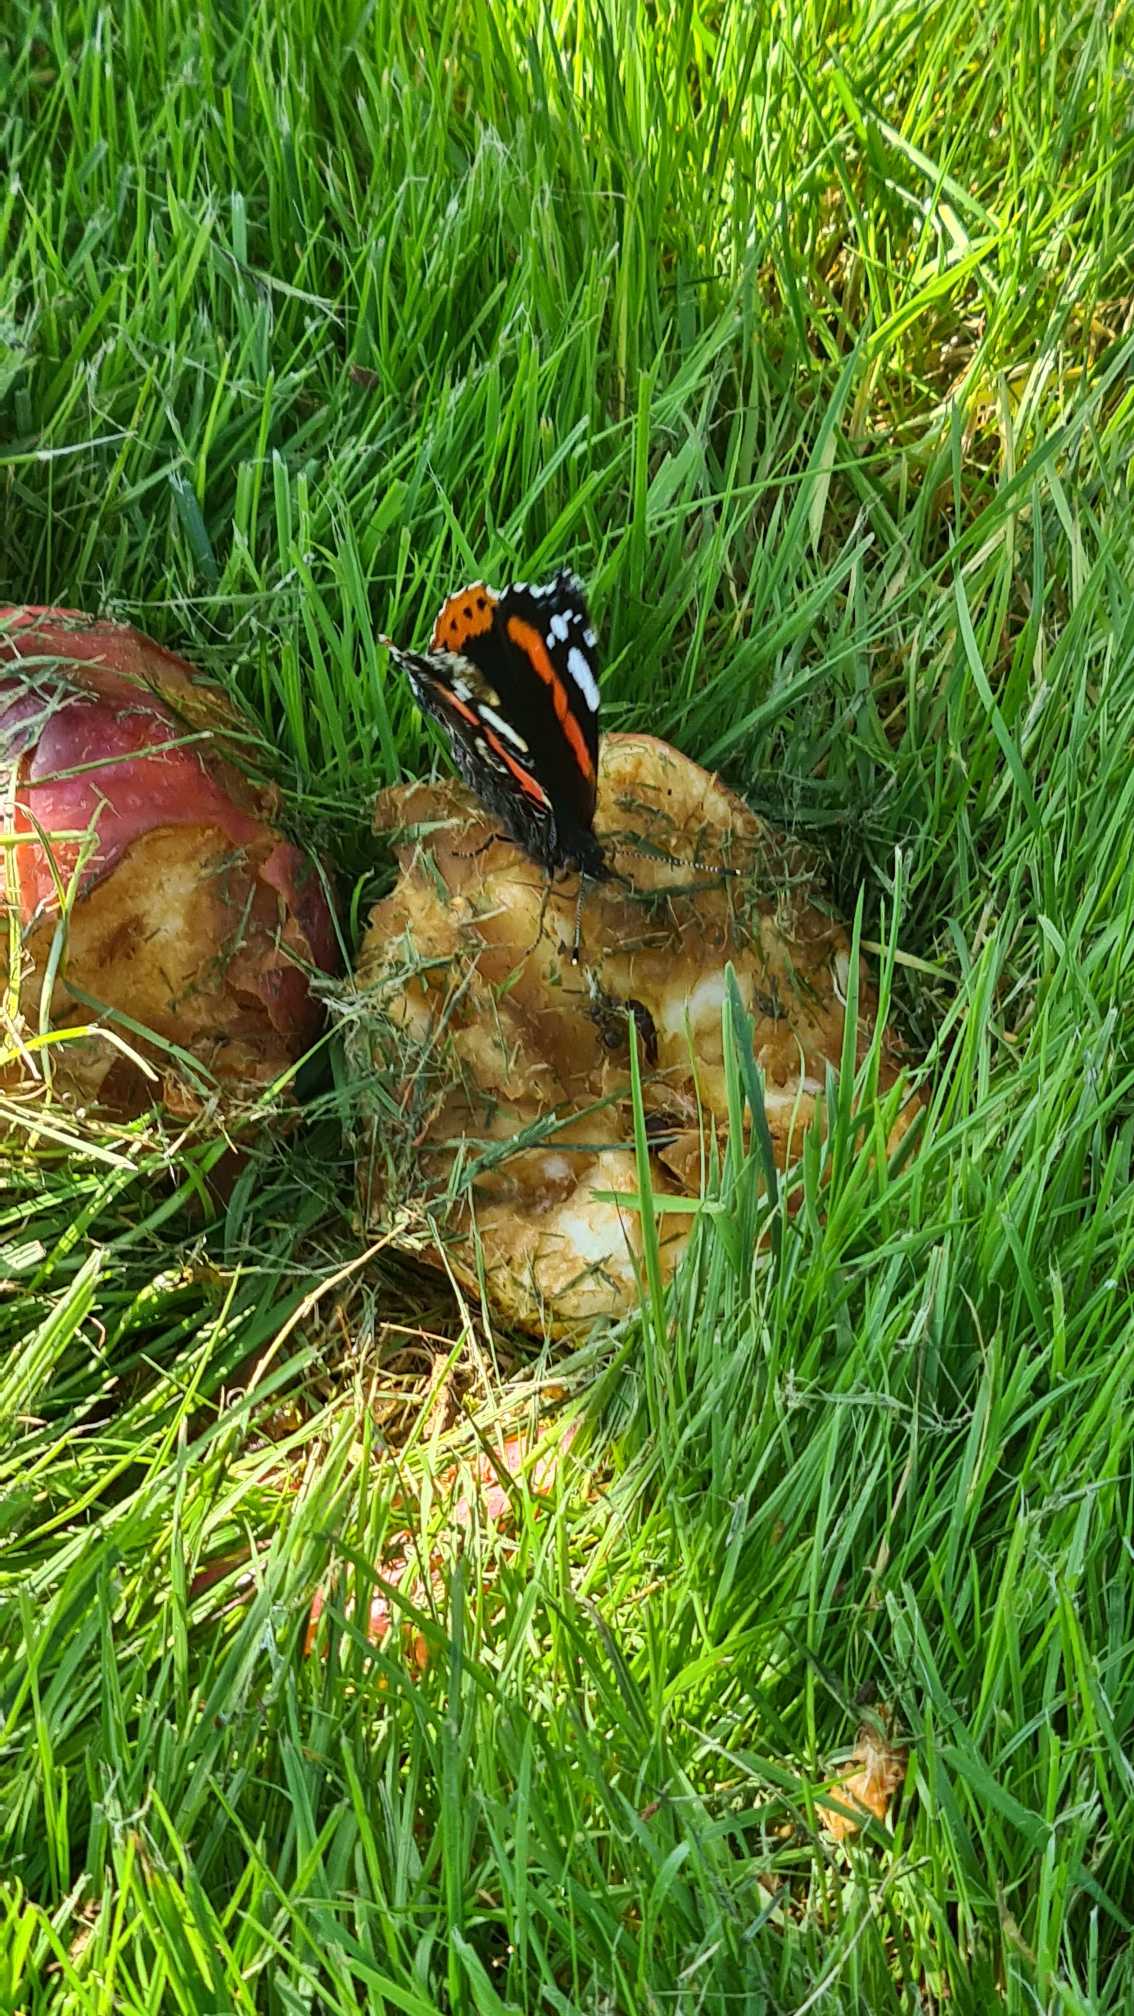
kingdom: Animalia
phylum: Arthropoda
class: Insecta
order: Lepidoptera
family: Nymphalidae
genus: Vanessa
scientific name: Vanessa atalanta
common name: Admiral
